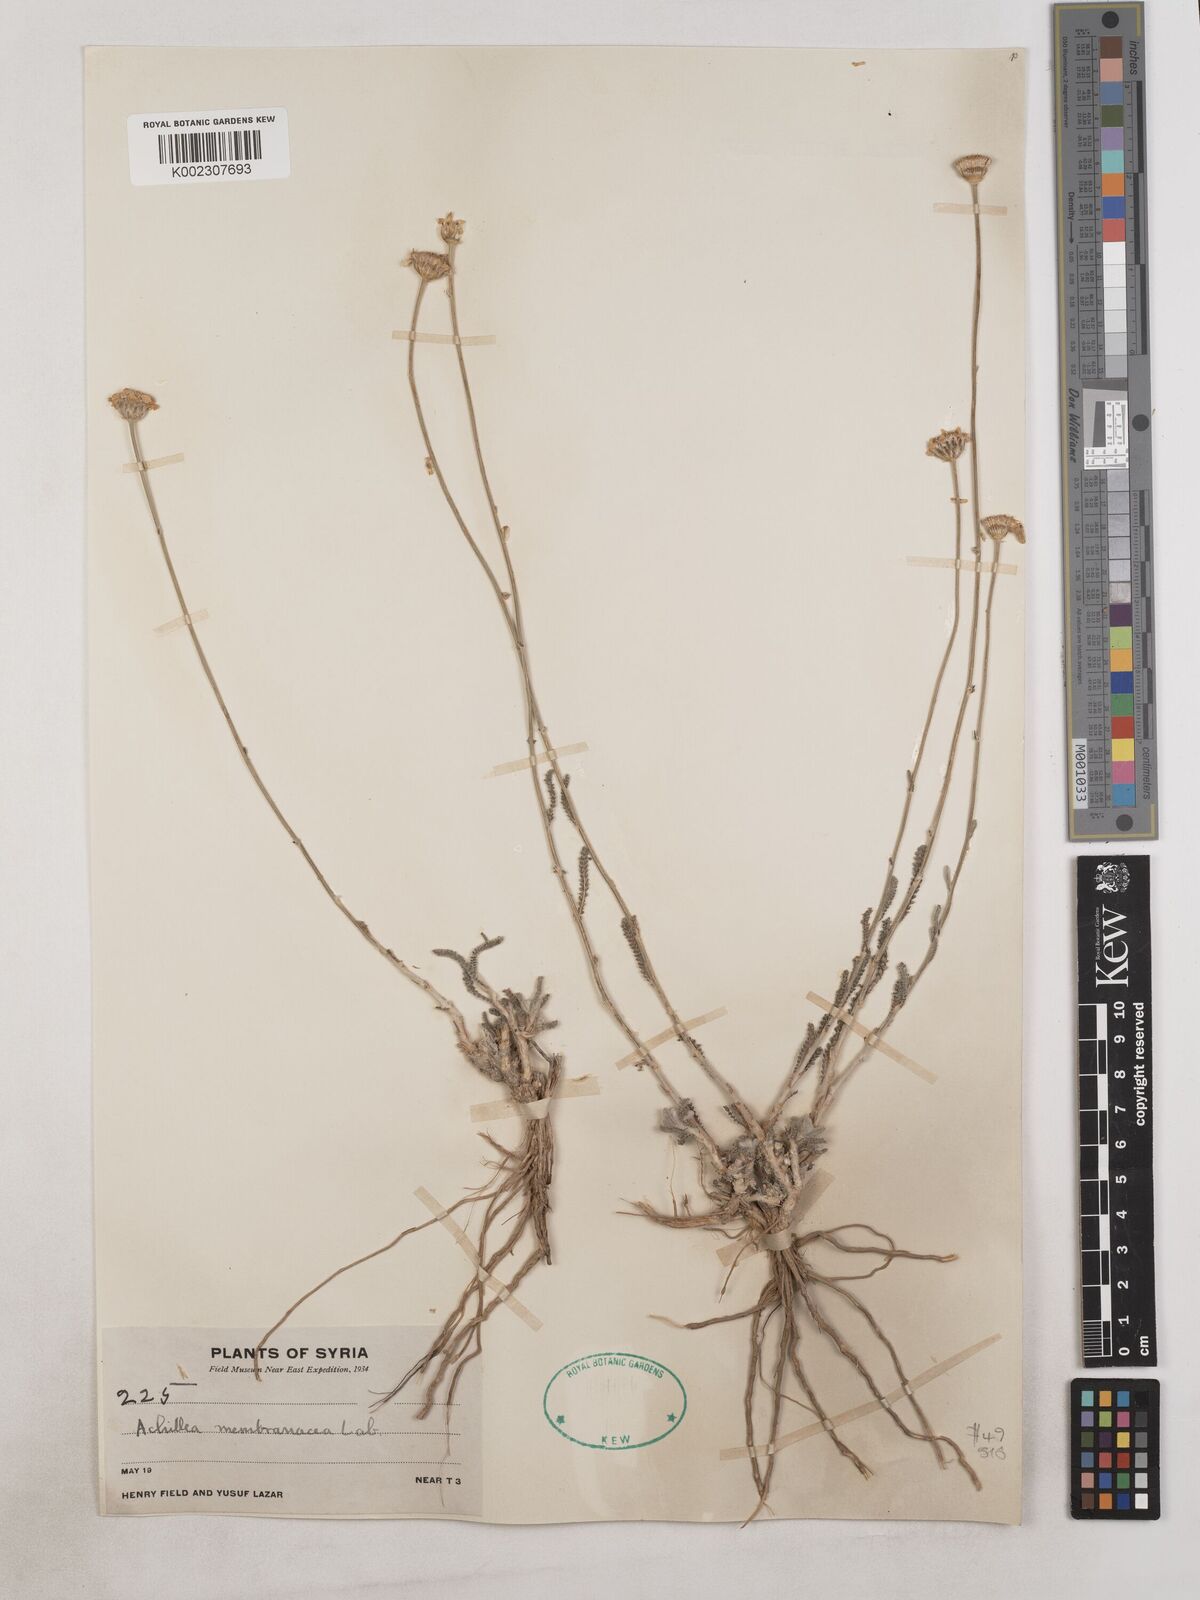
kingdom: Plantae
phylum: Tracheophyta
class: Magnoliopsida
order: Asterales
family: Asteraceae
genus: Achillea
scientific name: Achillea membranacea
